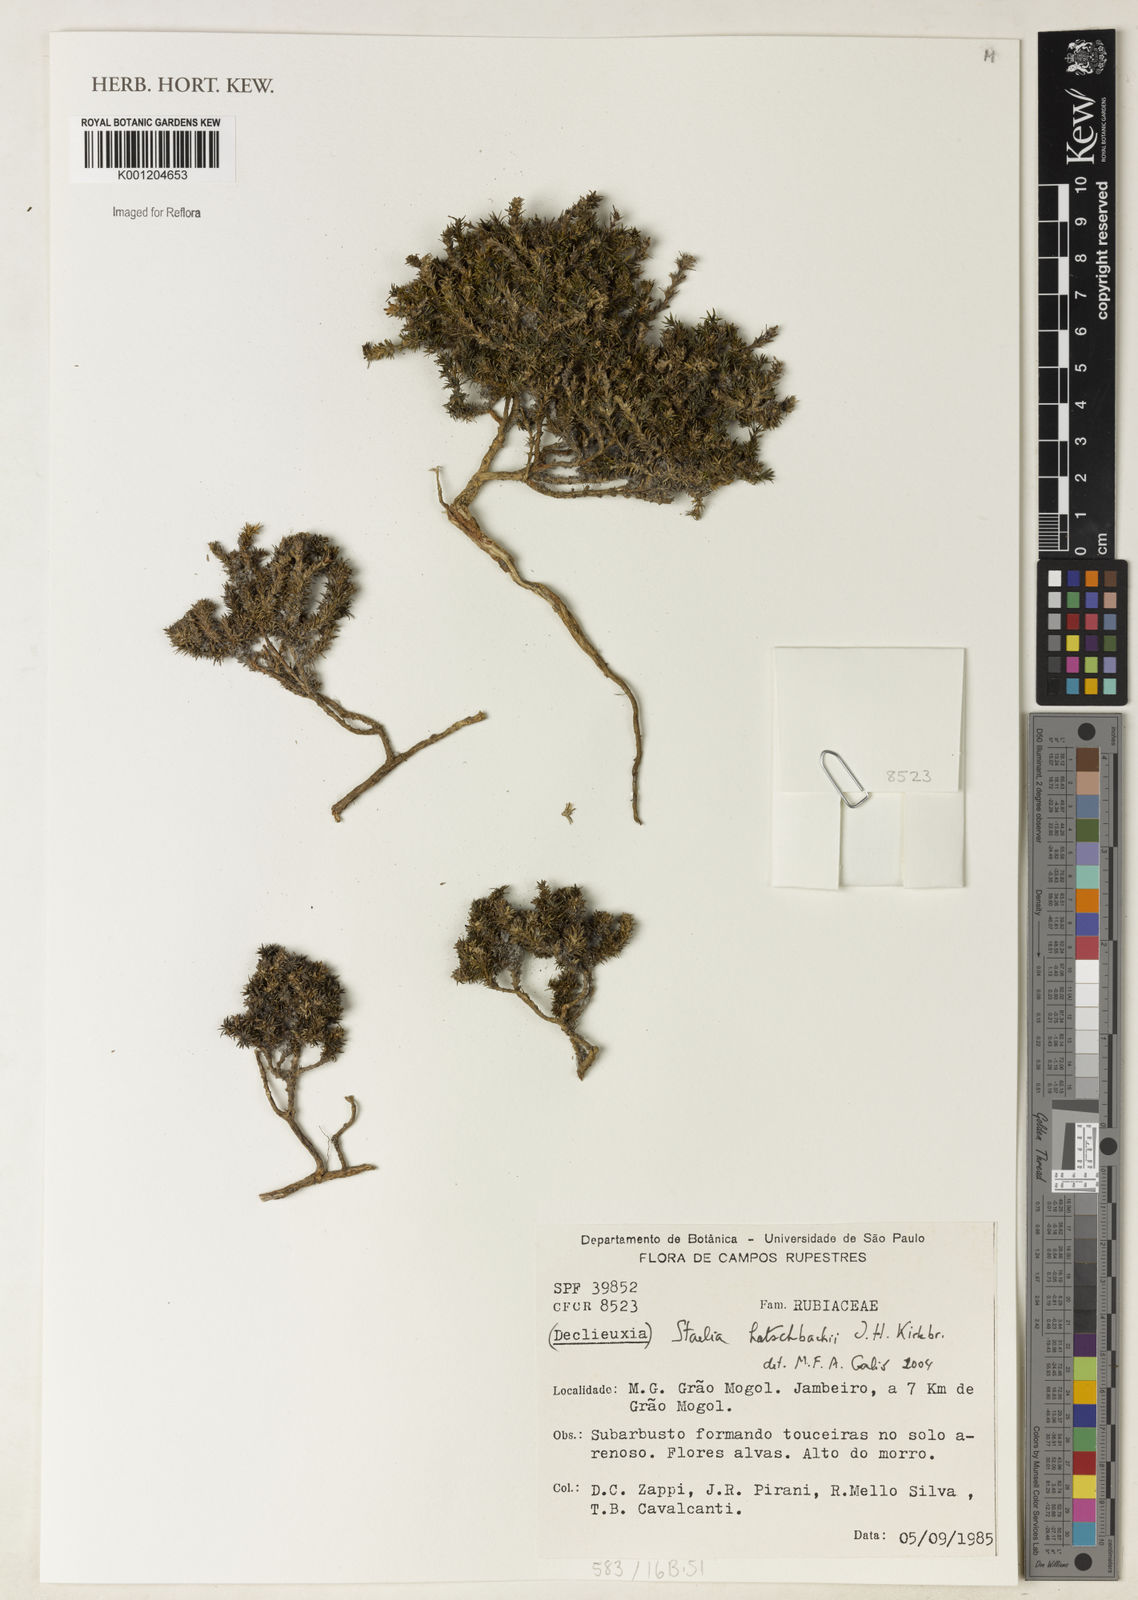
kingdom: Plantae
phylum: Tracheophyta
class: Magnoliopsida
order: Gentianales
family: Rubiaceae
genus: Staelia
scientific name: Staelia hatschbachii
